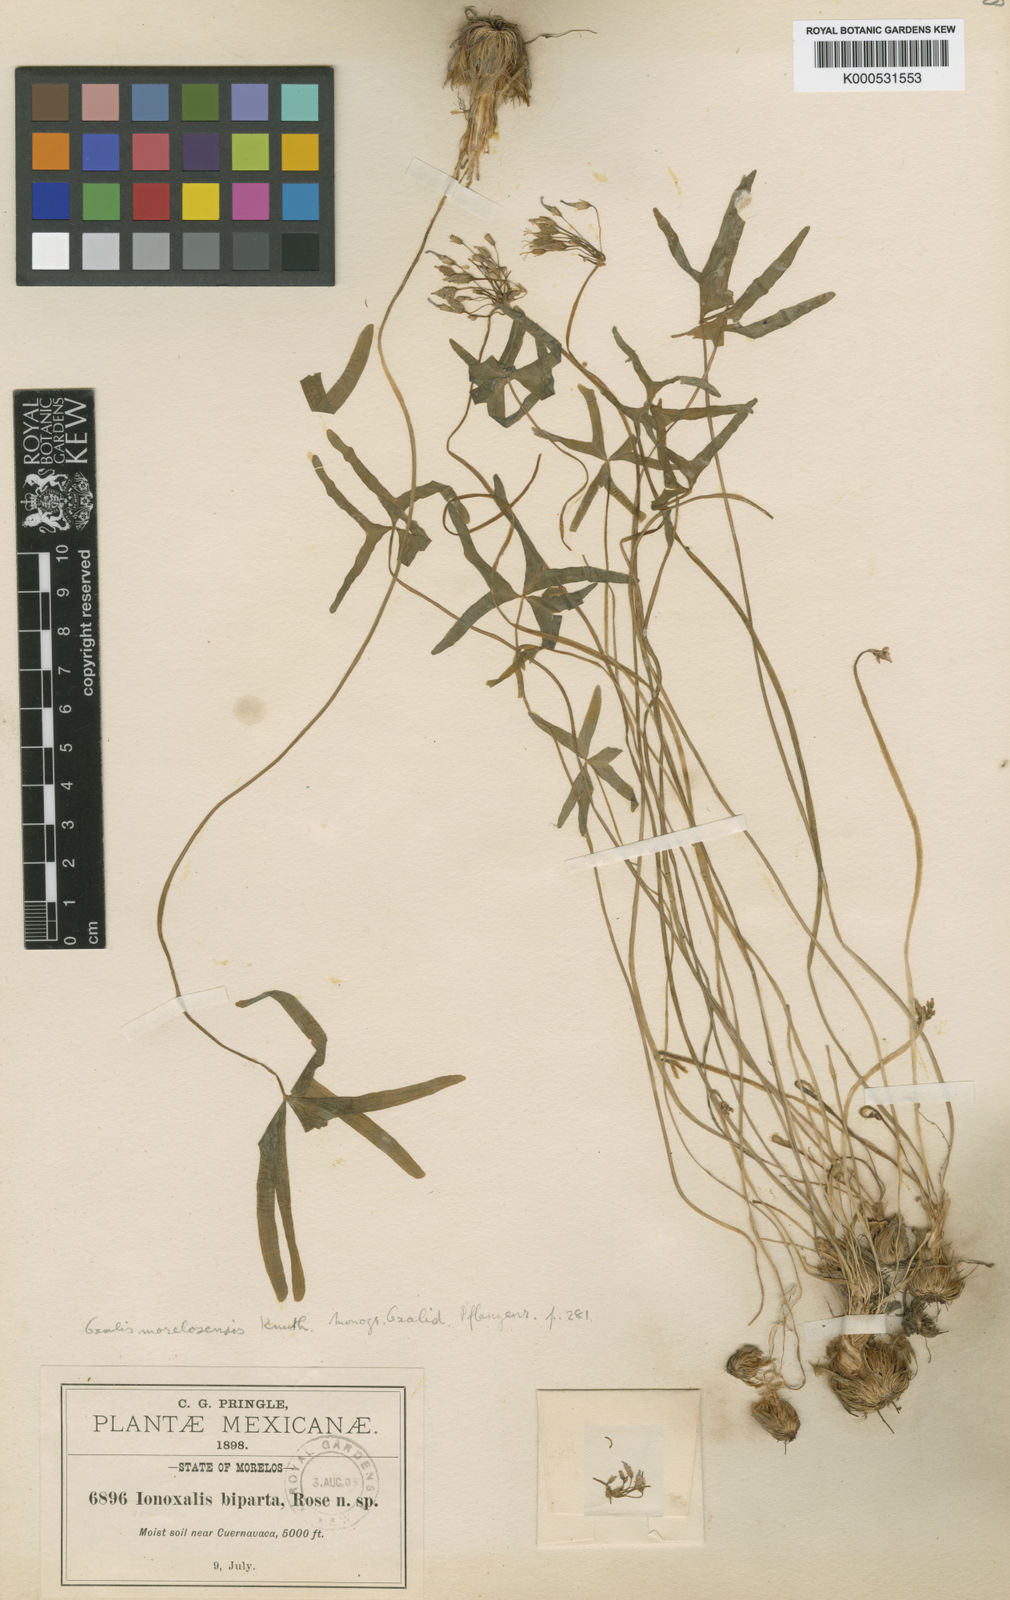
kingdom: Plantae
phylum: Tracheophyta
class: Magnoliopsida
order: Oxalidales
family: Oxalidaceae
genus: Oxalis
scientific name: Oxalis latifolia
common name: Garden pink-sorrel
